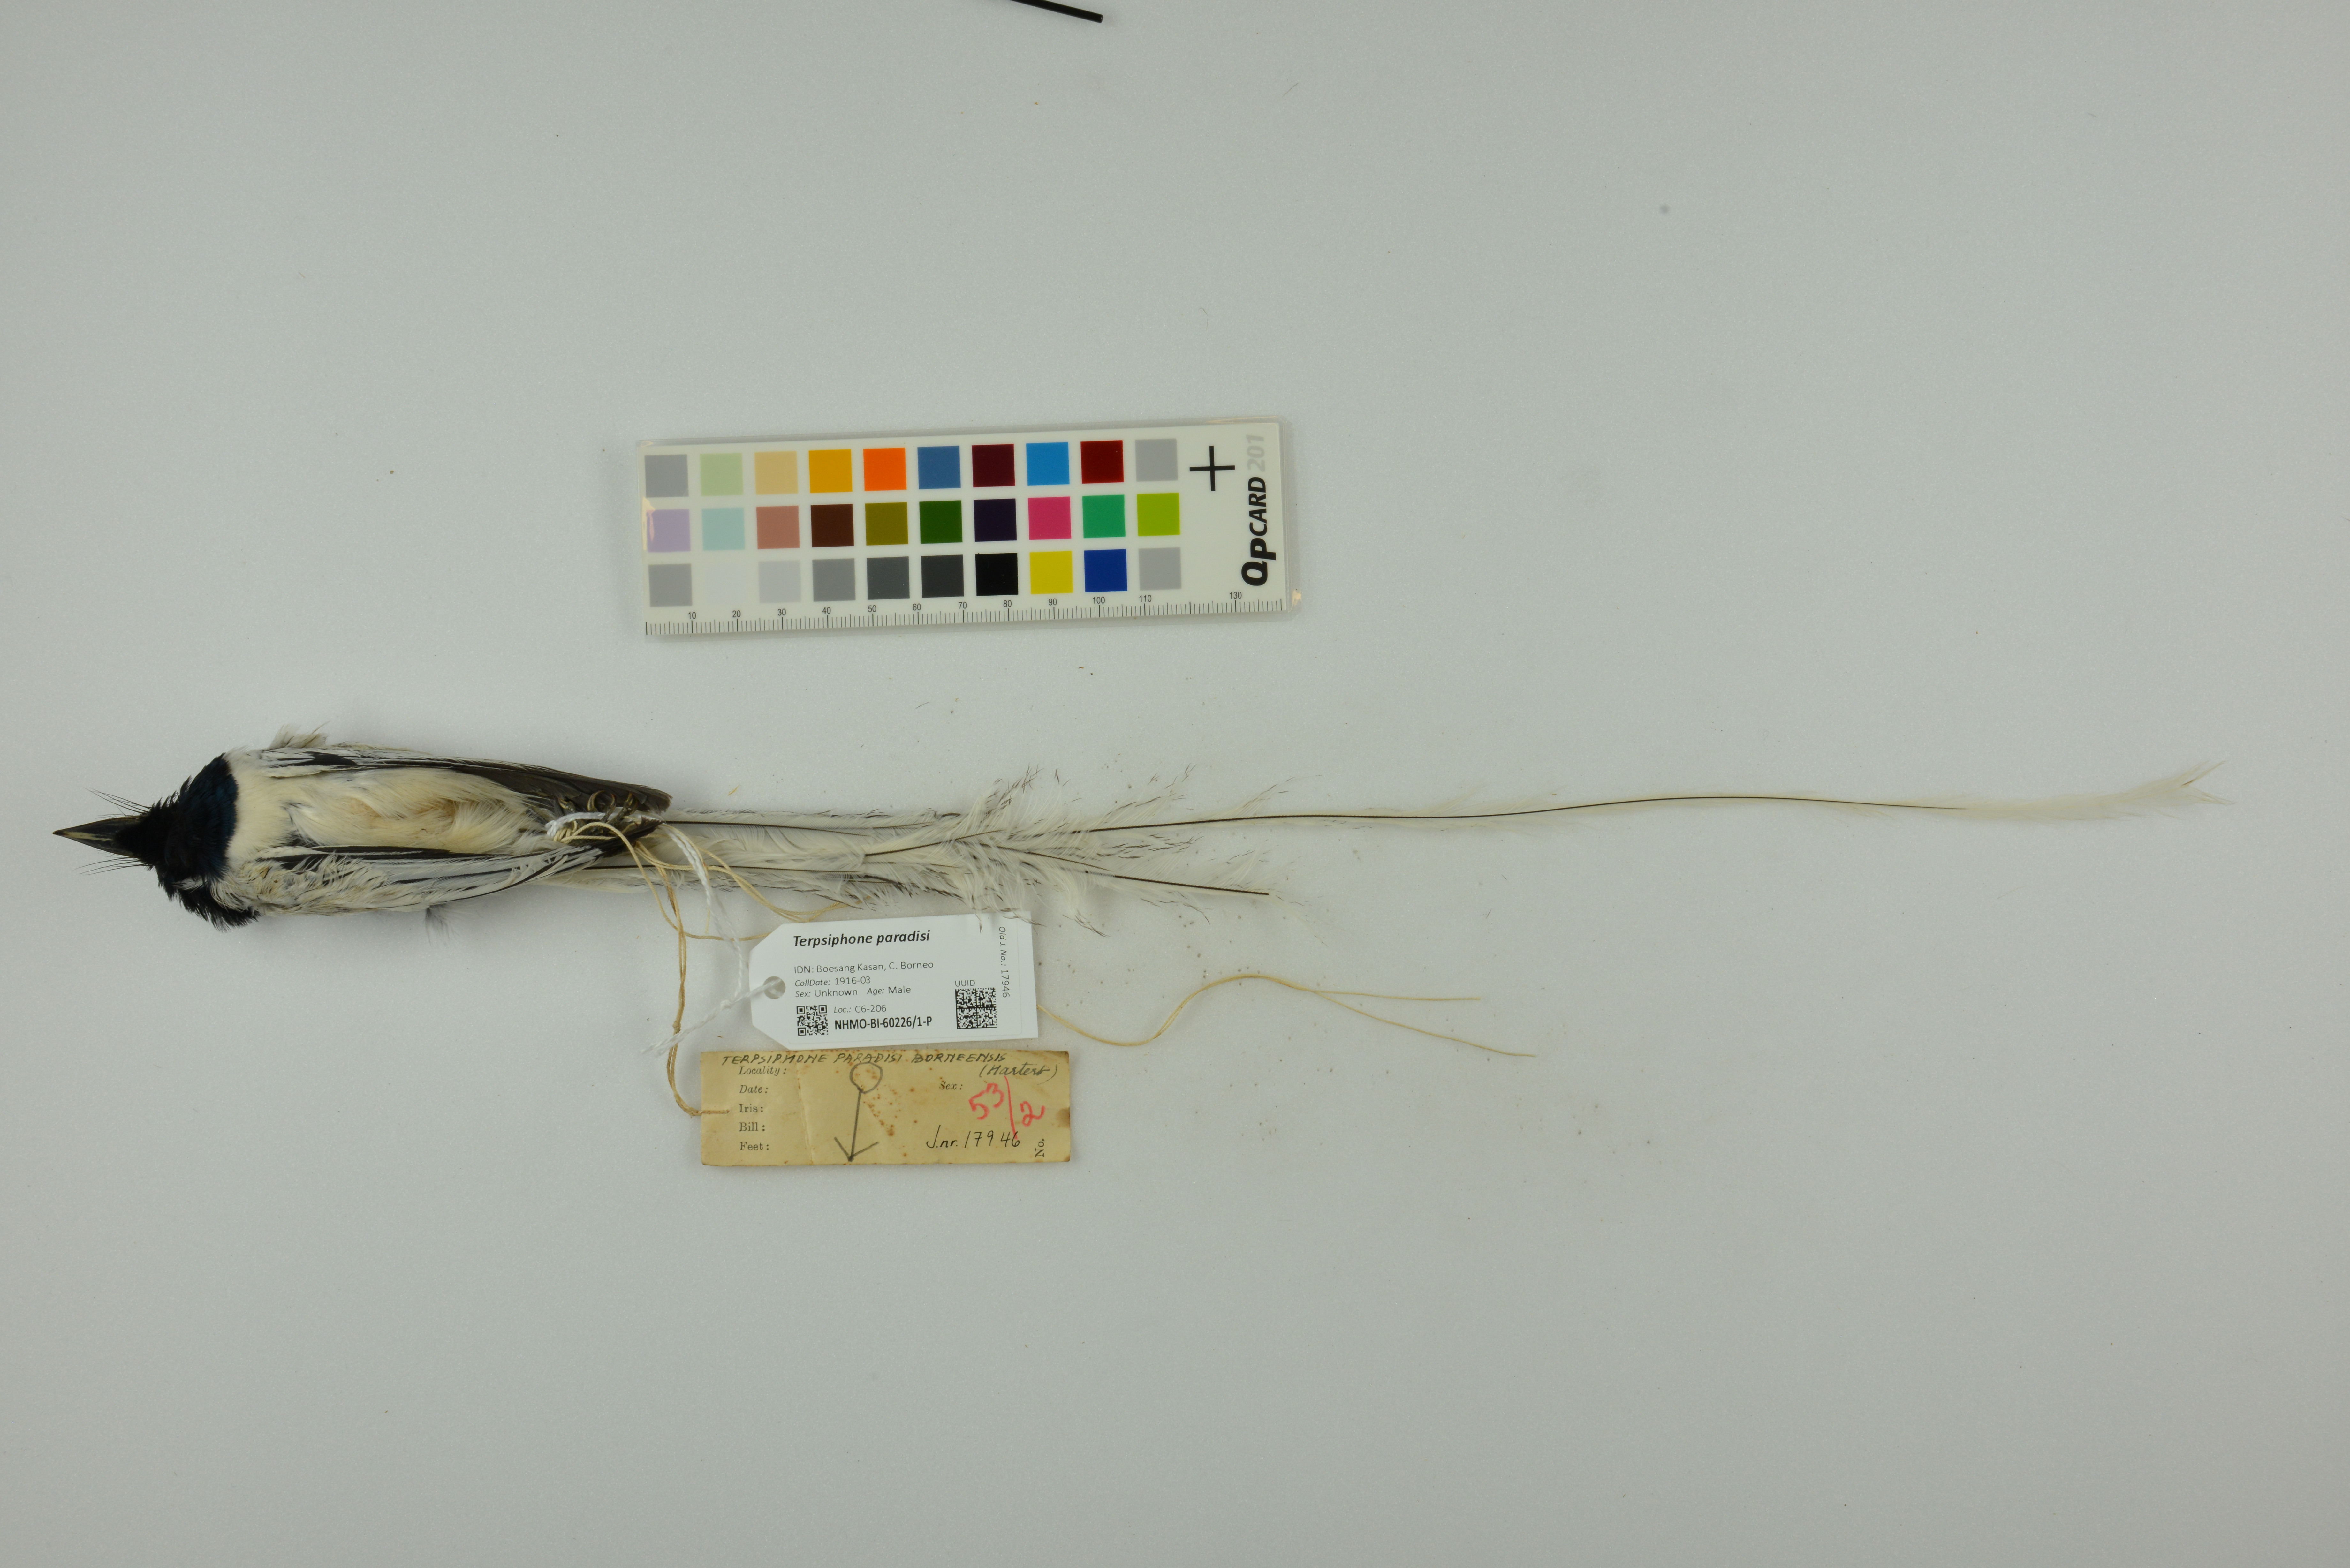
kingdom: Animalia
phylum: Chordata
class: Aves
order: Passeriformes
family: Monarchidae
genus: Terpsiphone
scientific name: Terpsiphone paradisi
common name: Indian paradise flycatcher
